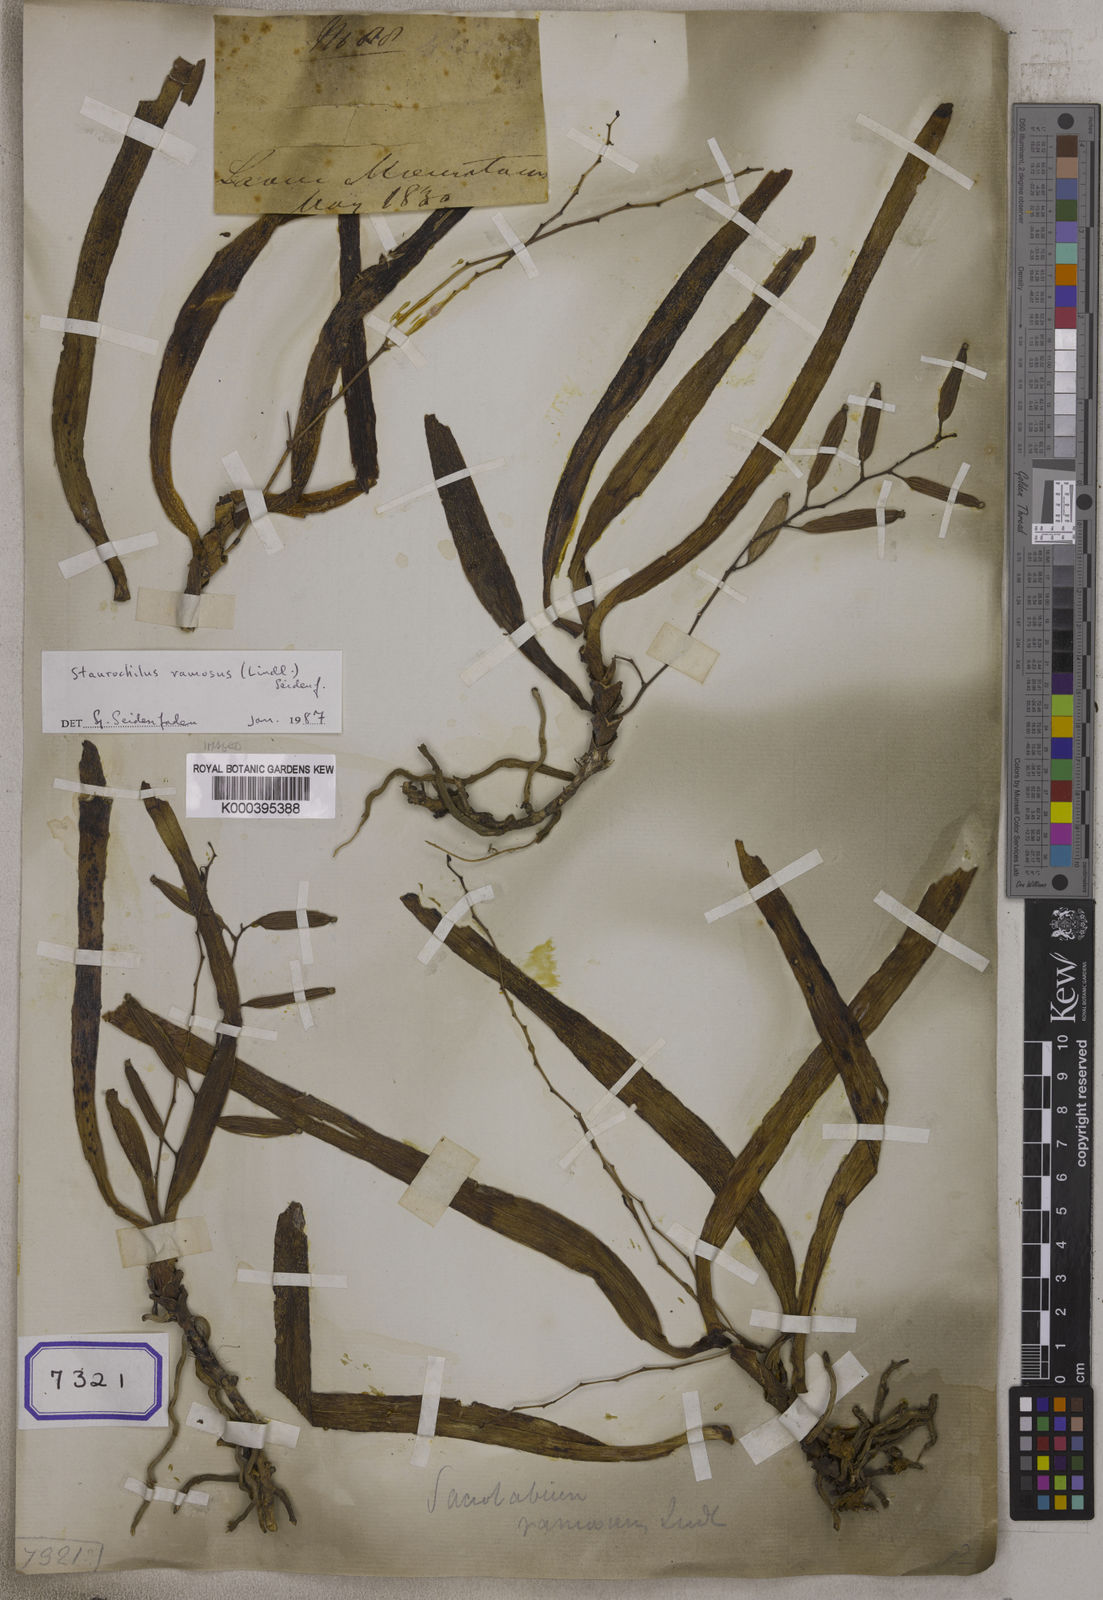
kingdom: Plantae
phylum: Tracheophyta
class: Liliopsida
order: Asparagales
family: Orchidaceae
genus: Micropera
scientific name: Micropera pallida
